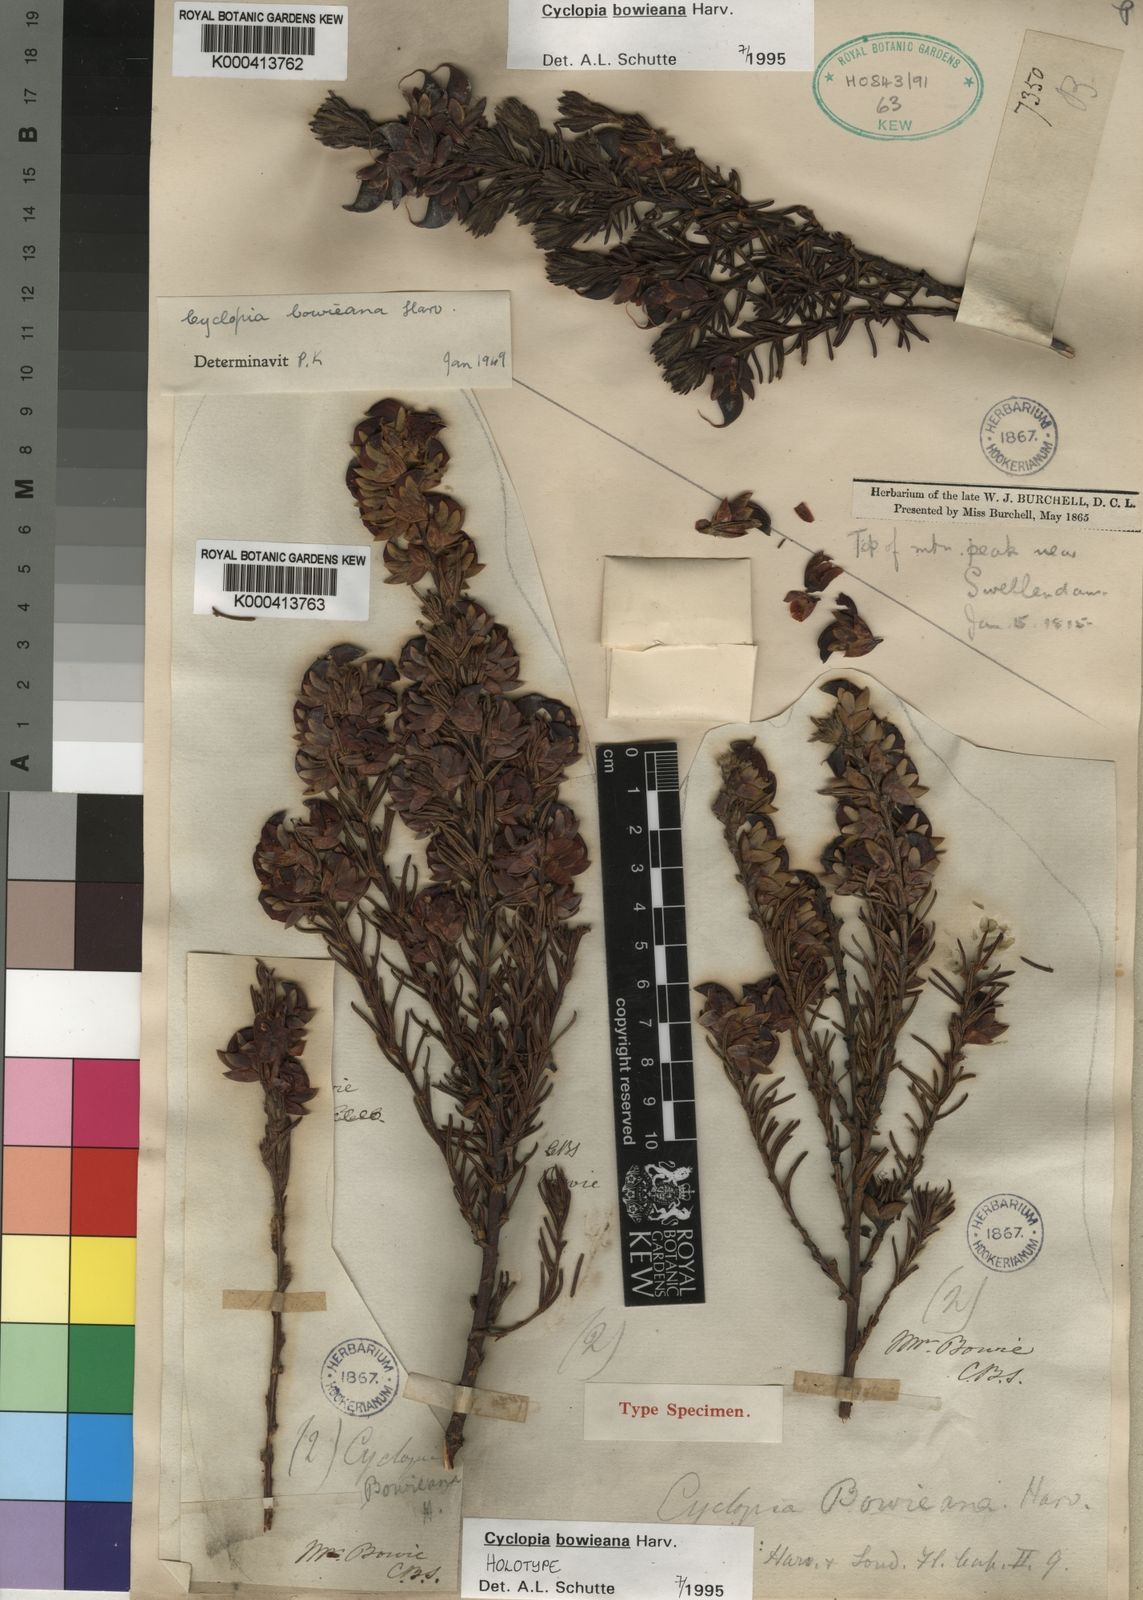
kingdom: Plantae
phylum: Tracheophyta
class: Magnoliopsida
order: Fabales
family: Fabaceae
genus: Cyclopia
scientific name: Cyclopia bowieana
